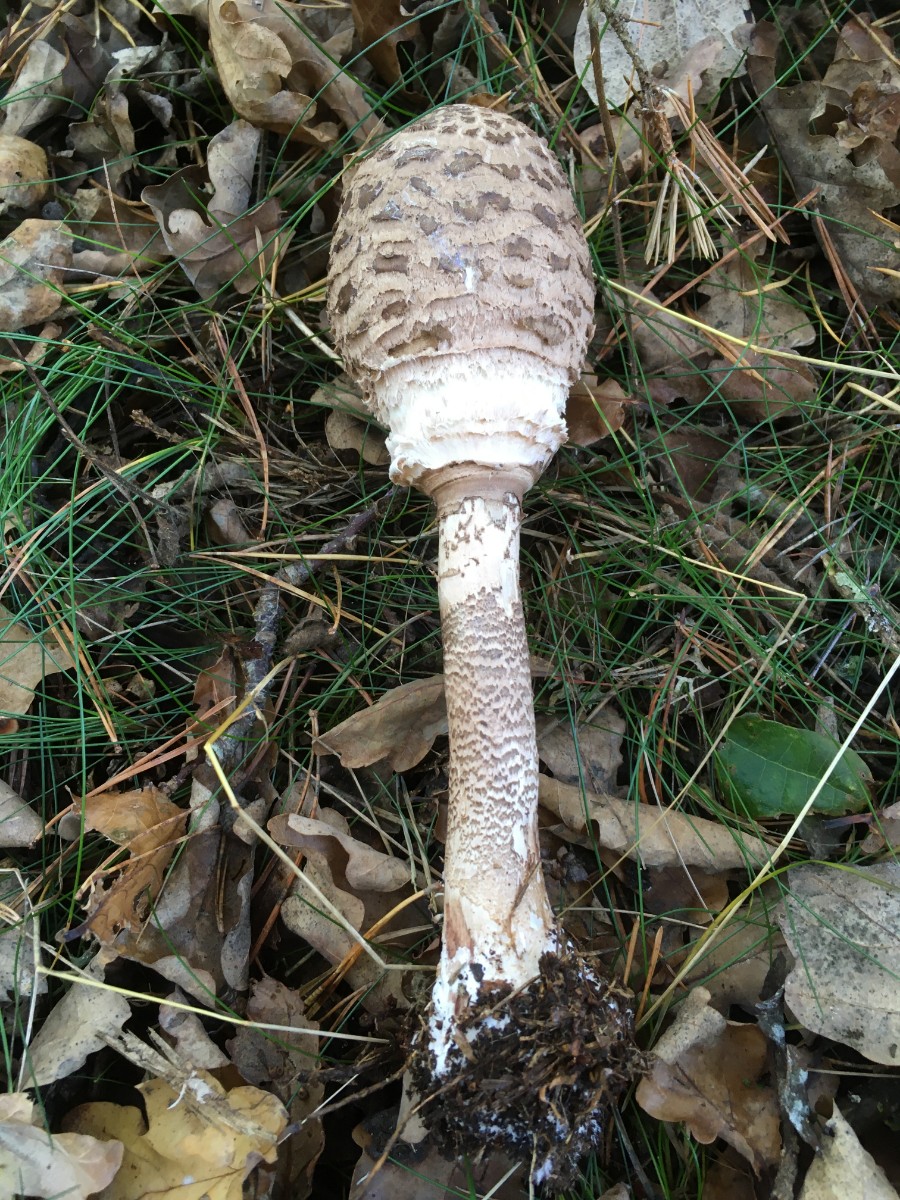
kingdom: Fungi
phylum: Basidiomycota
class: Agaricomycetes
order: Agaricales
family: Agaricaceae
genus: Macrolepiota
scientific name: Macrolepiota procera
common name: stor kæmpeparasolhat
